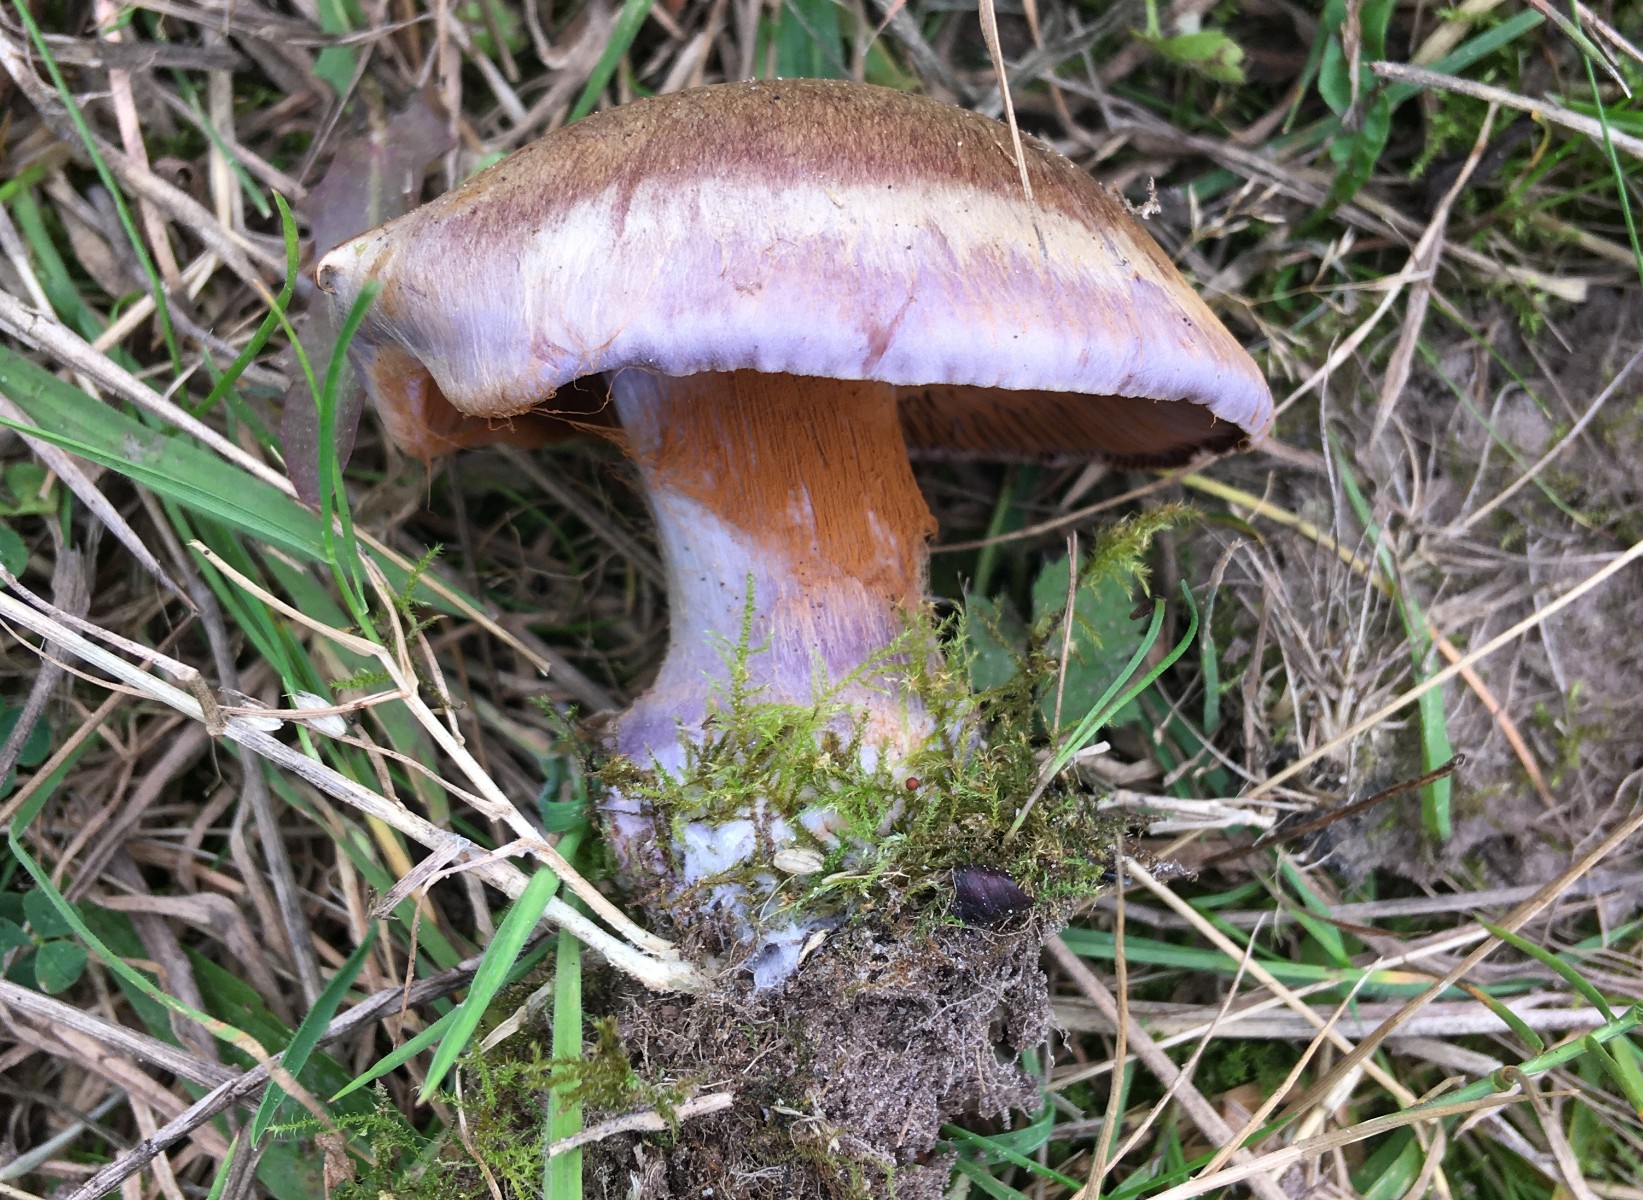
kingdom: Fungi
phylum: Basidiomycota
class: Agaricomycetes
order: Agaricales
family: Cortinariaceae
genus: Cortinarius
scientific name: Cortinarius largus
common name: violetrandet slørhat
